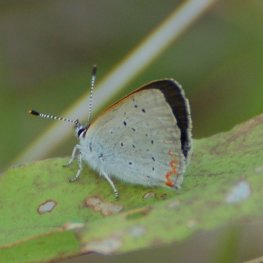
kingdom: Animalia
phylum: Arthropoda
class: Insecta
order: Lepidoptera
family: Sesiidae
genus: Sesia
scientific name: Sesia Lycaena epixanthe
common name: Bog Copper
